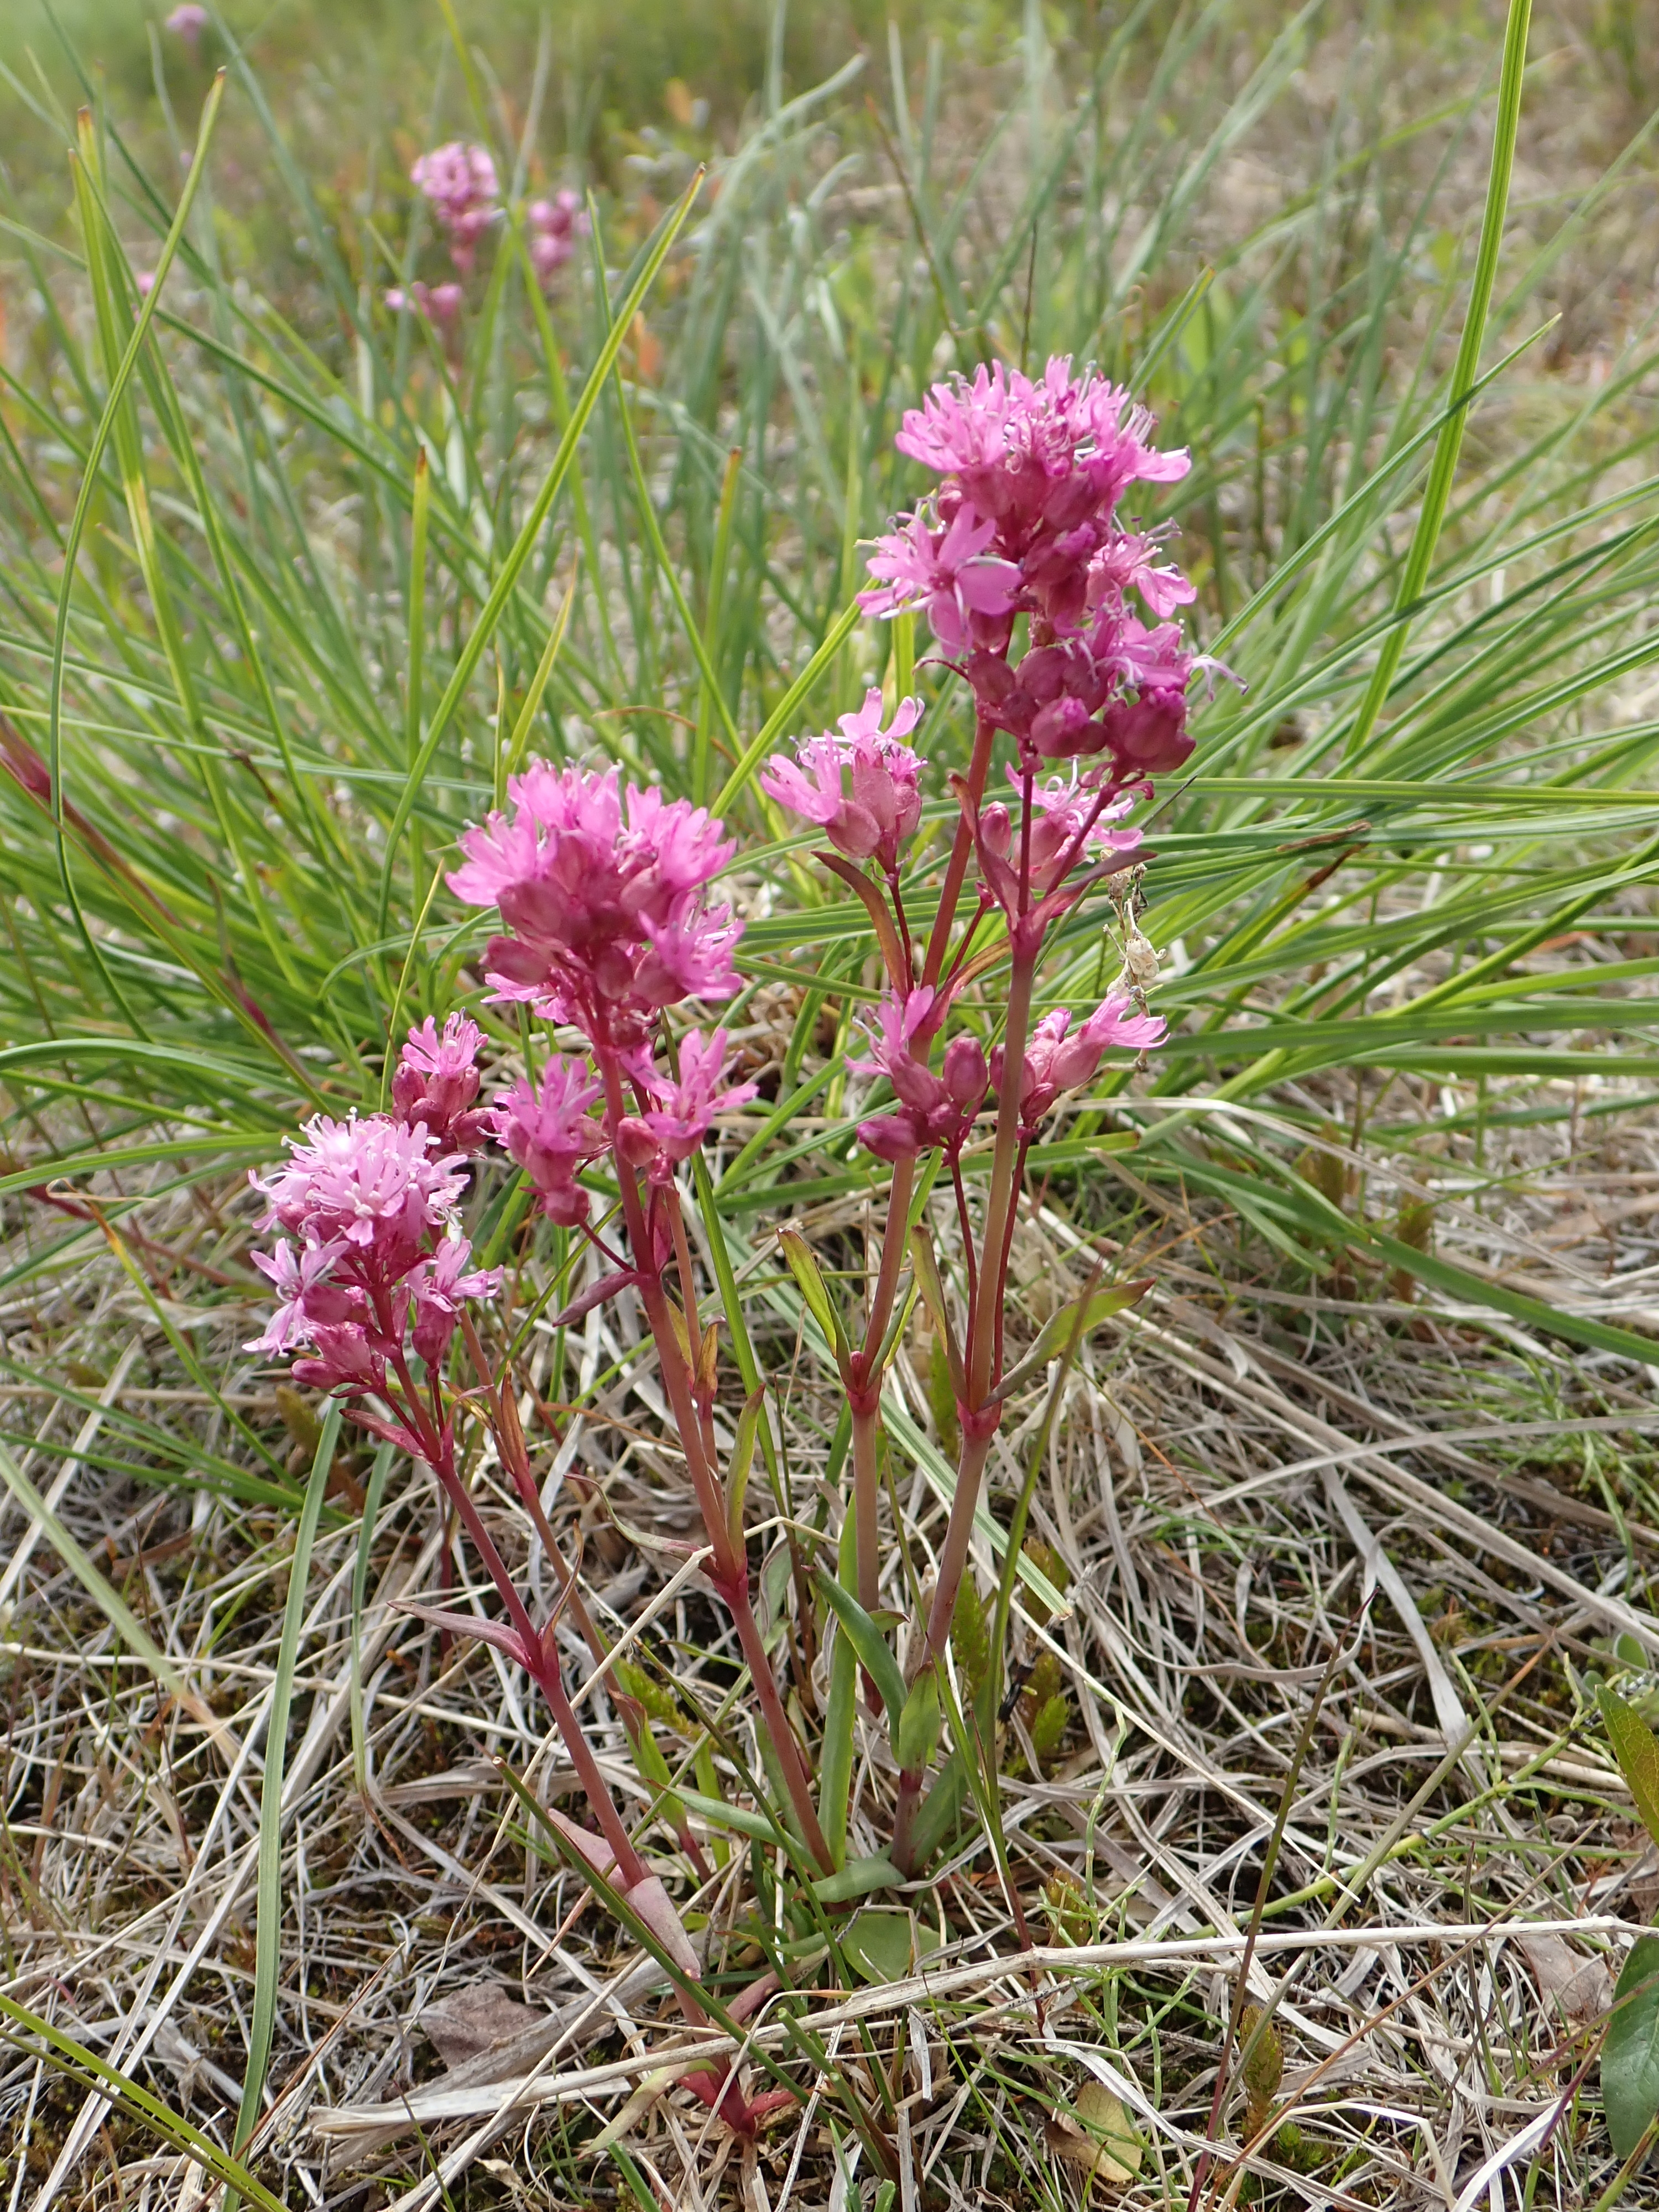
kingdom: Plantae
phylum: Tracheophyta
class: Magnoliopsida
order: Caryophyllales
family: Caryophyllaceae
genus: Viscaria
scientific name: Viscaria alpina
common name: Alpine campion
